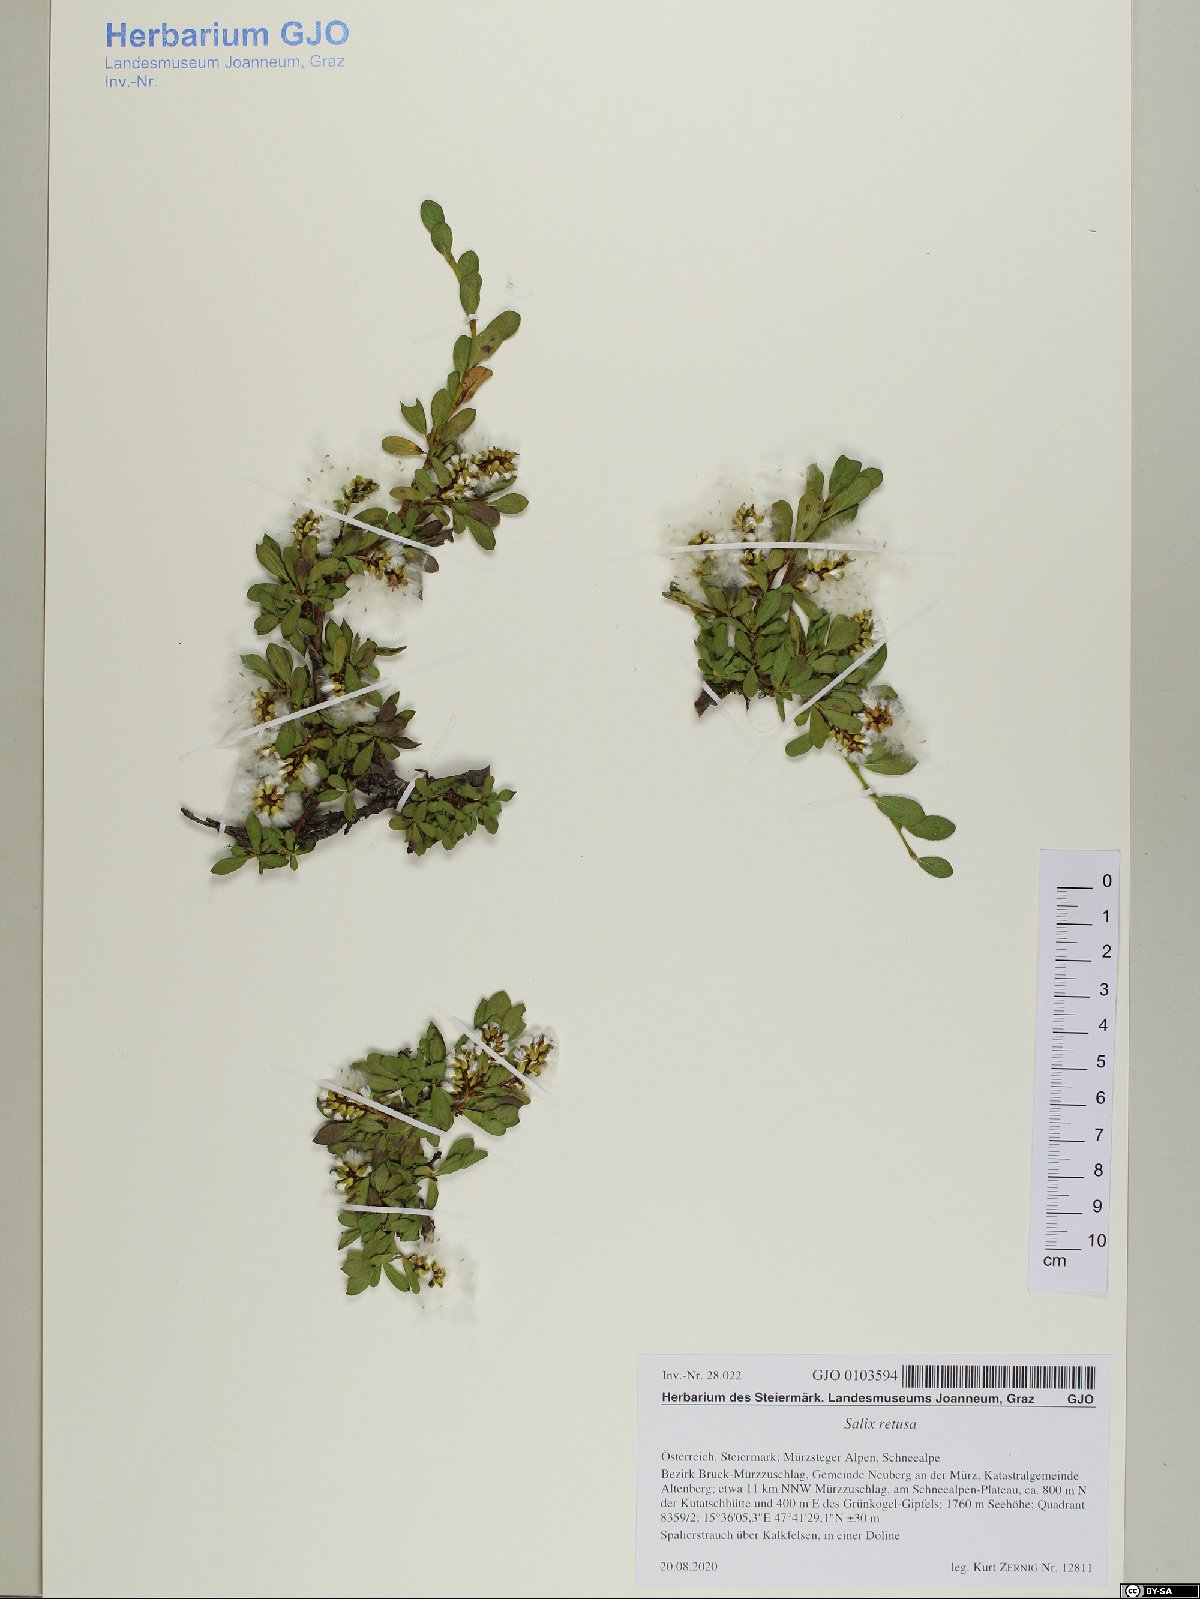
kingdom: Plantae
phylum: Tracheophyta
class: Magnoliopsida
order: Malpighiales
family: Salicaceae
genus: Salix
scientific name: Salix retusa
